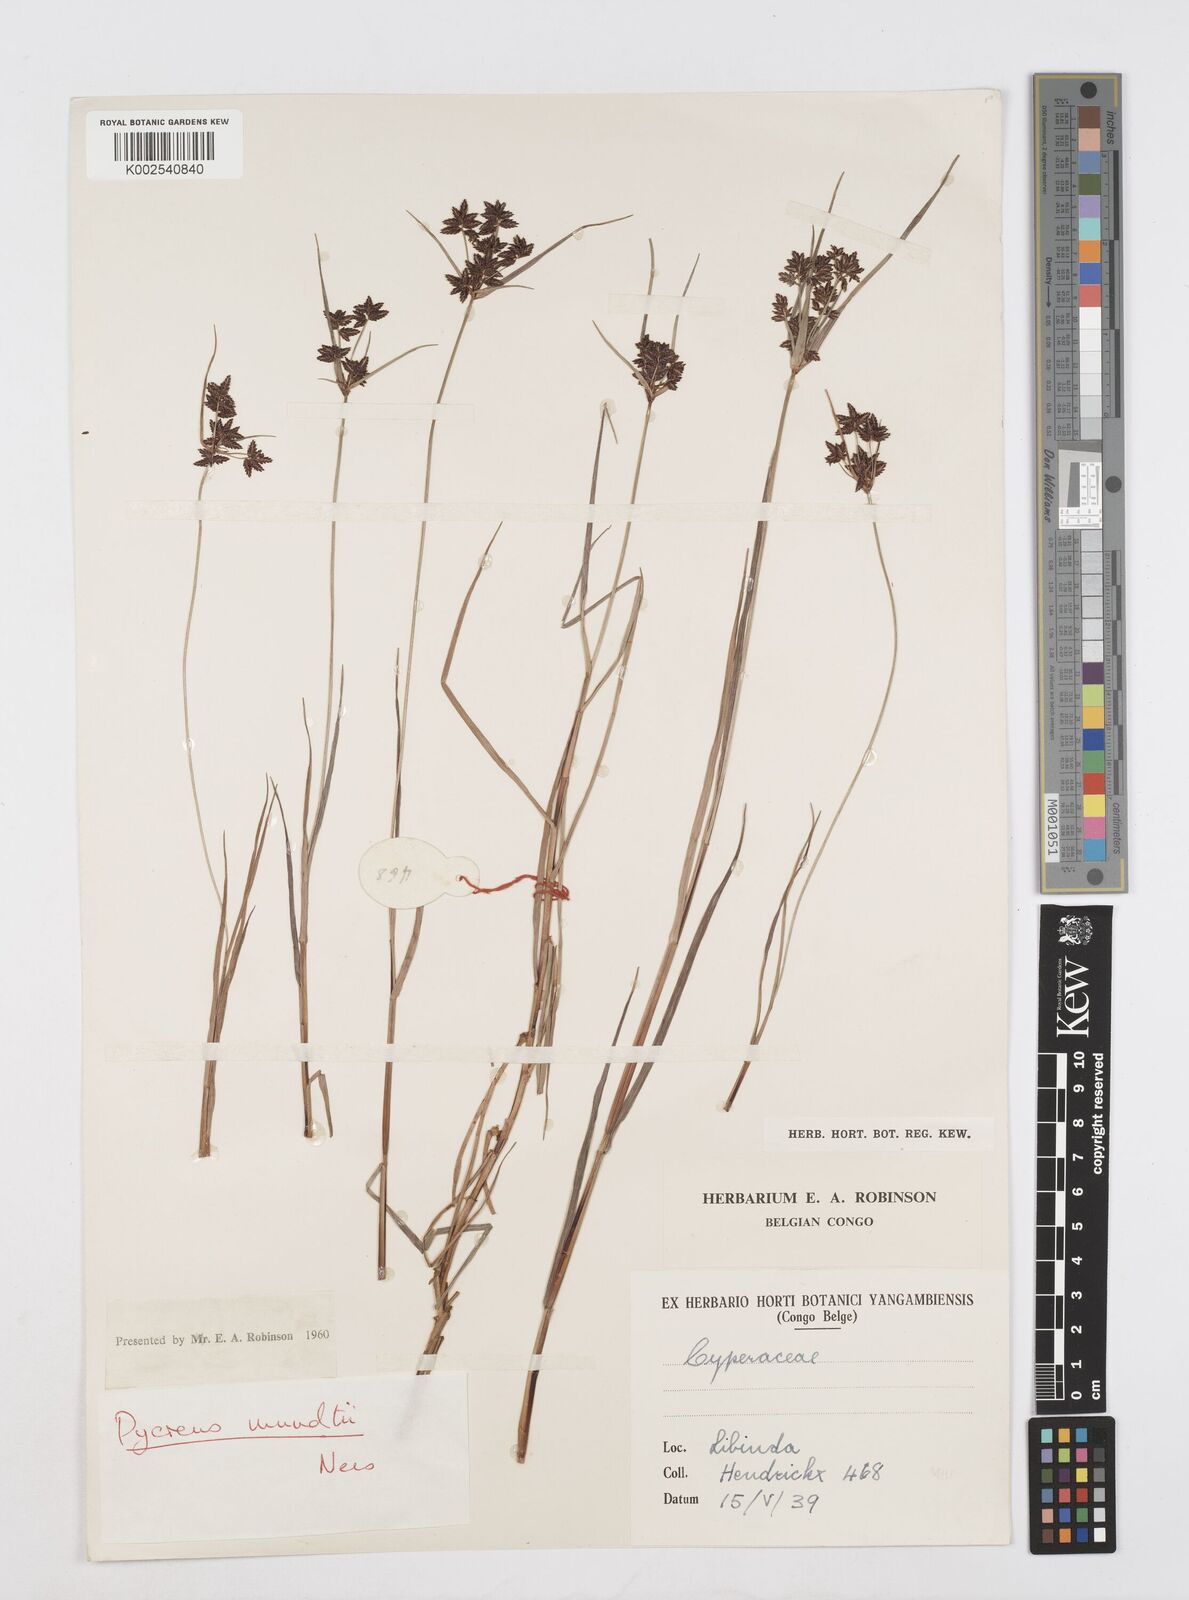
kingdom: Plantae
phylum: Tracheophyta
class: Liliopsida
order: Poales
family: Cyperaceae
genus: Cyperus
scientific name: Cyperus mundii
